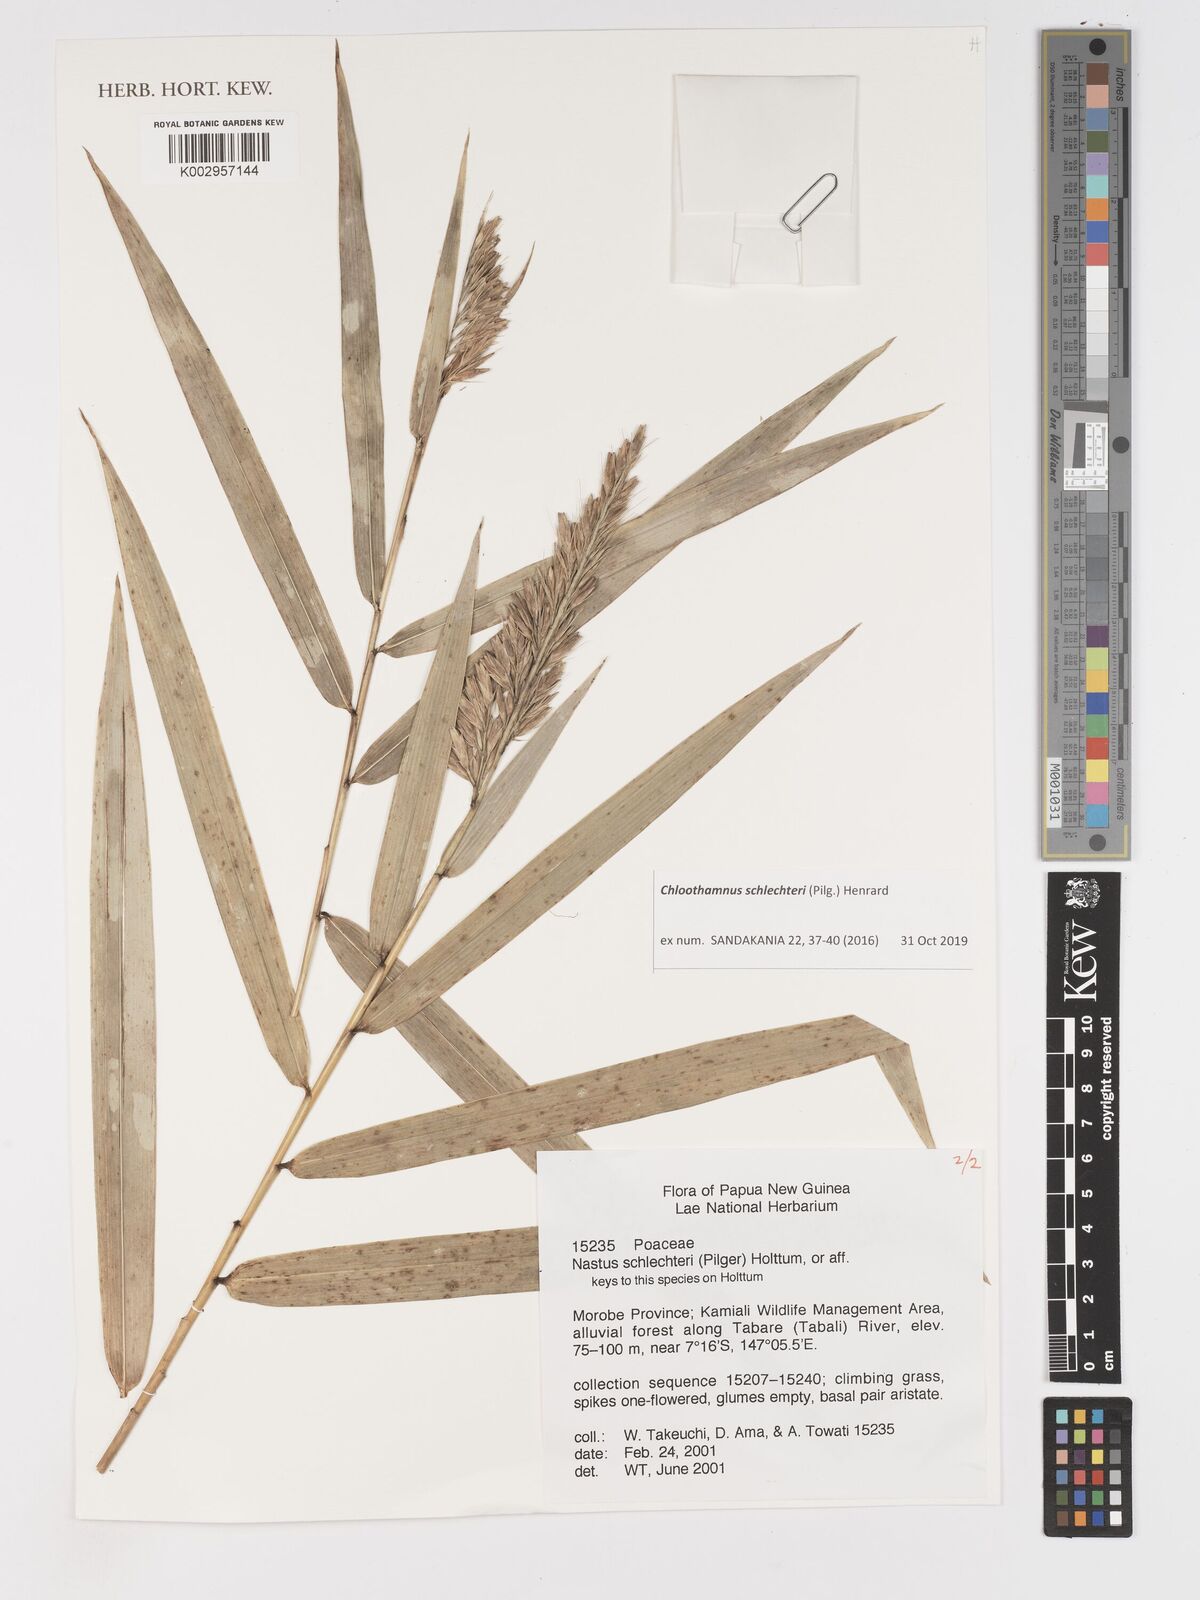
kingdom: Plantae
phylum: Tracheophyta
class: Liliopsida
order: Poales
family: Poaceae
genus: Chloothamnus
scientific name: Chloothamnus schlechteri
